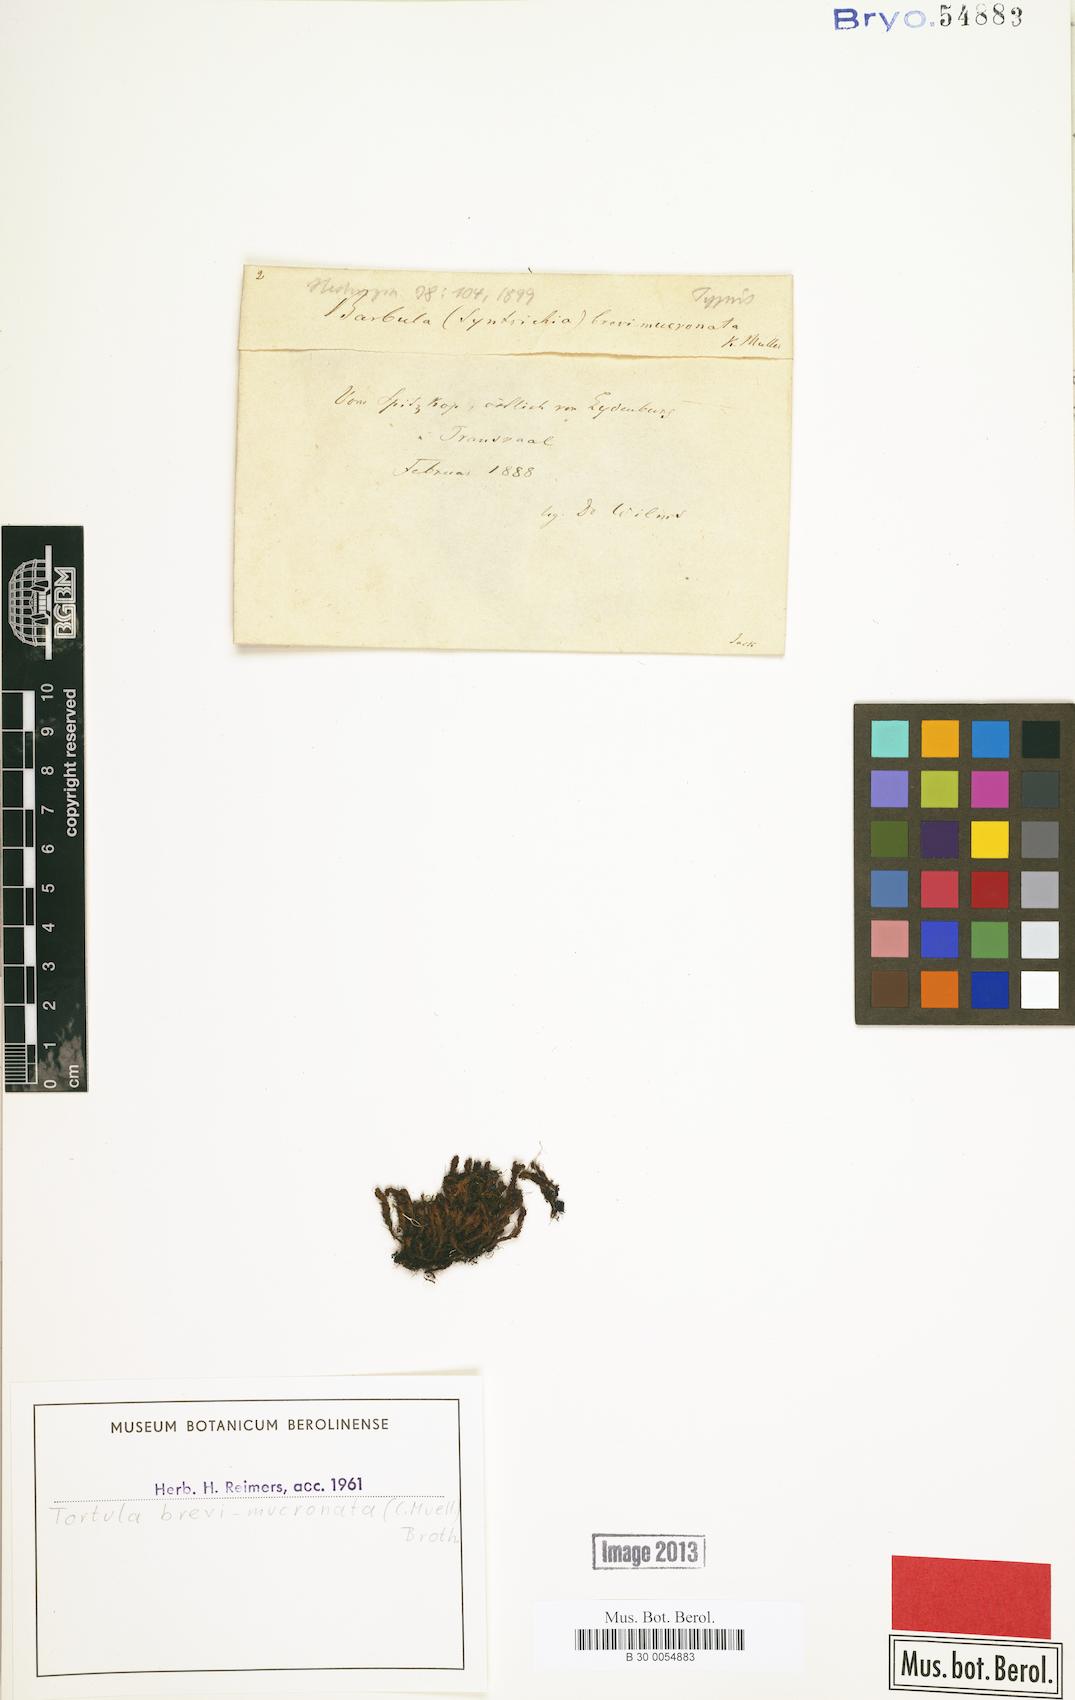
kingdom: Plantae
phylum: Bryophyta
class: Bryopsida
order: Pottiales
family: Pottiaceae
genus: Syntrichia
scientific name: Syntrichia fragilis
